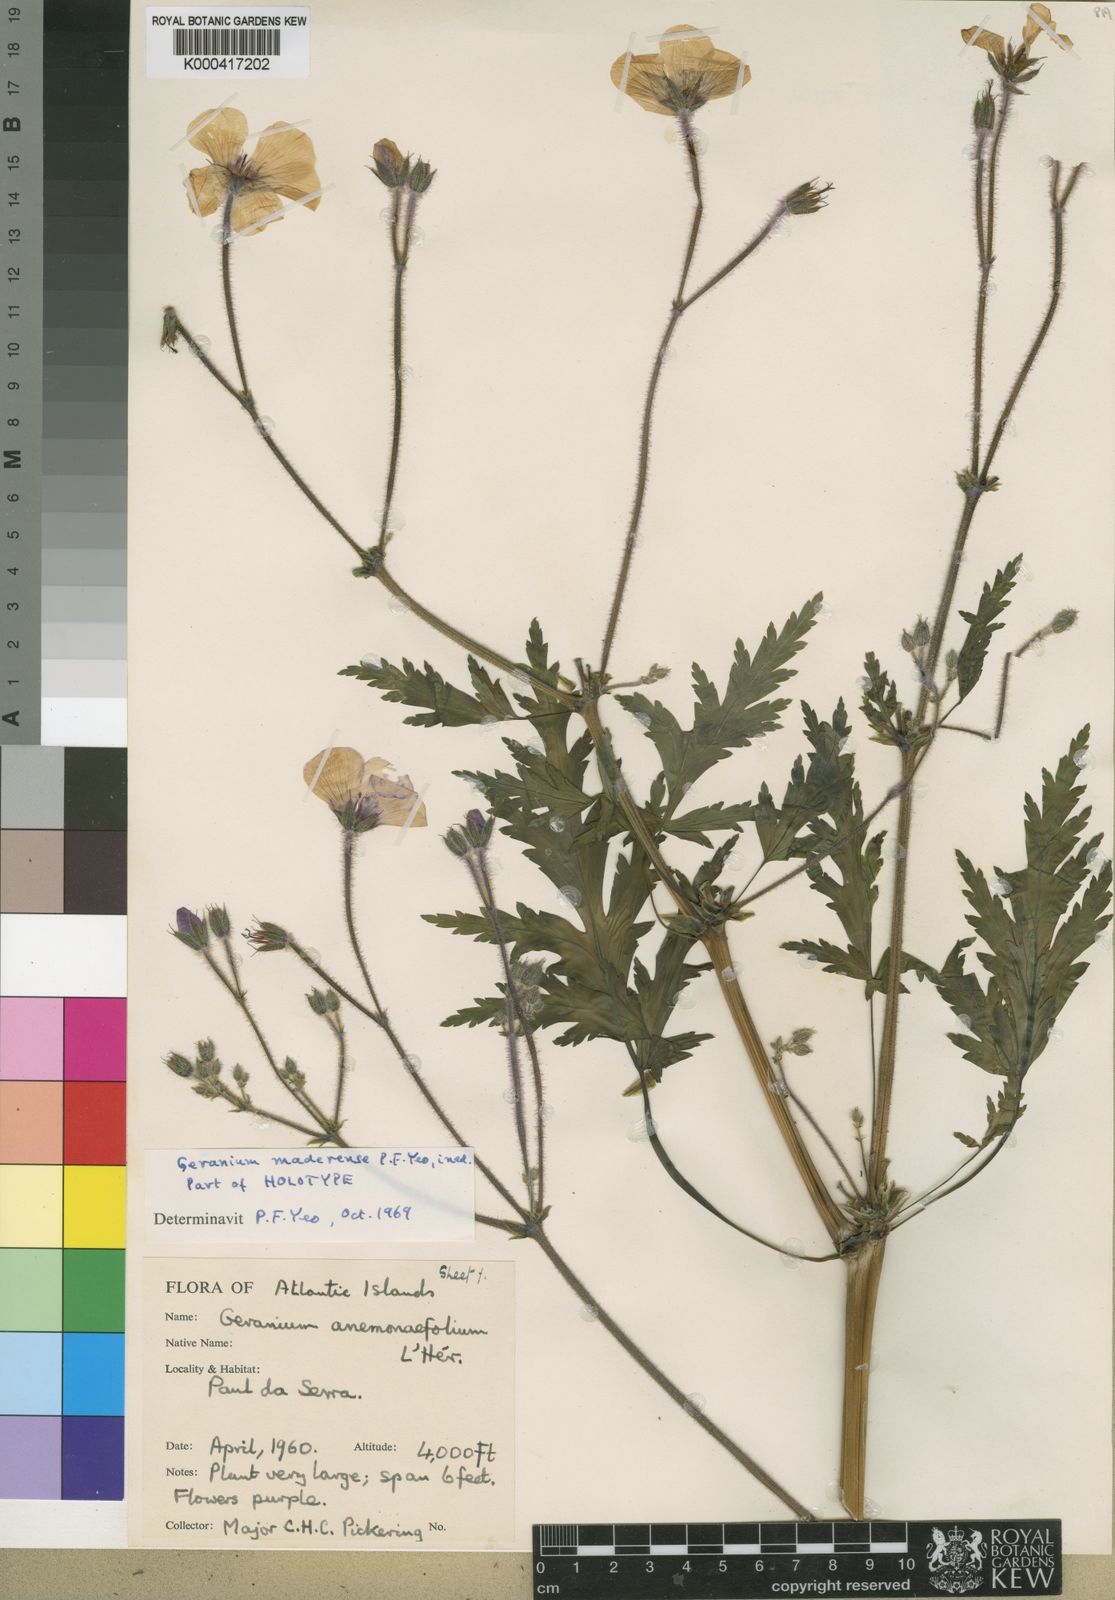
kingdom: Plantae
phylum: Tracheophyta
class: Magnoliopsida
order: Geraniales
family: Geraniaceae
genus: Geranium
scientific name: Geranium maderense
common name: Giant herb-robert
